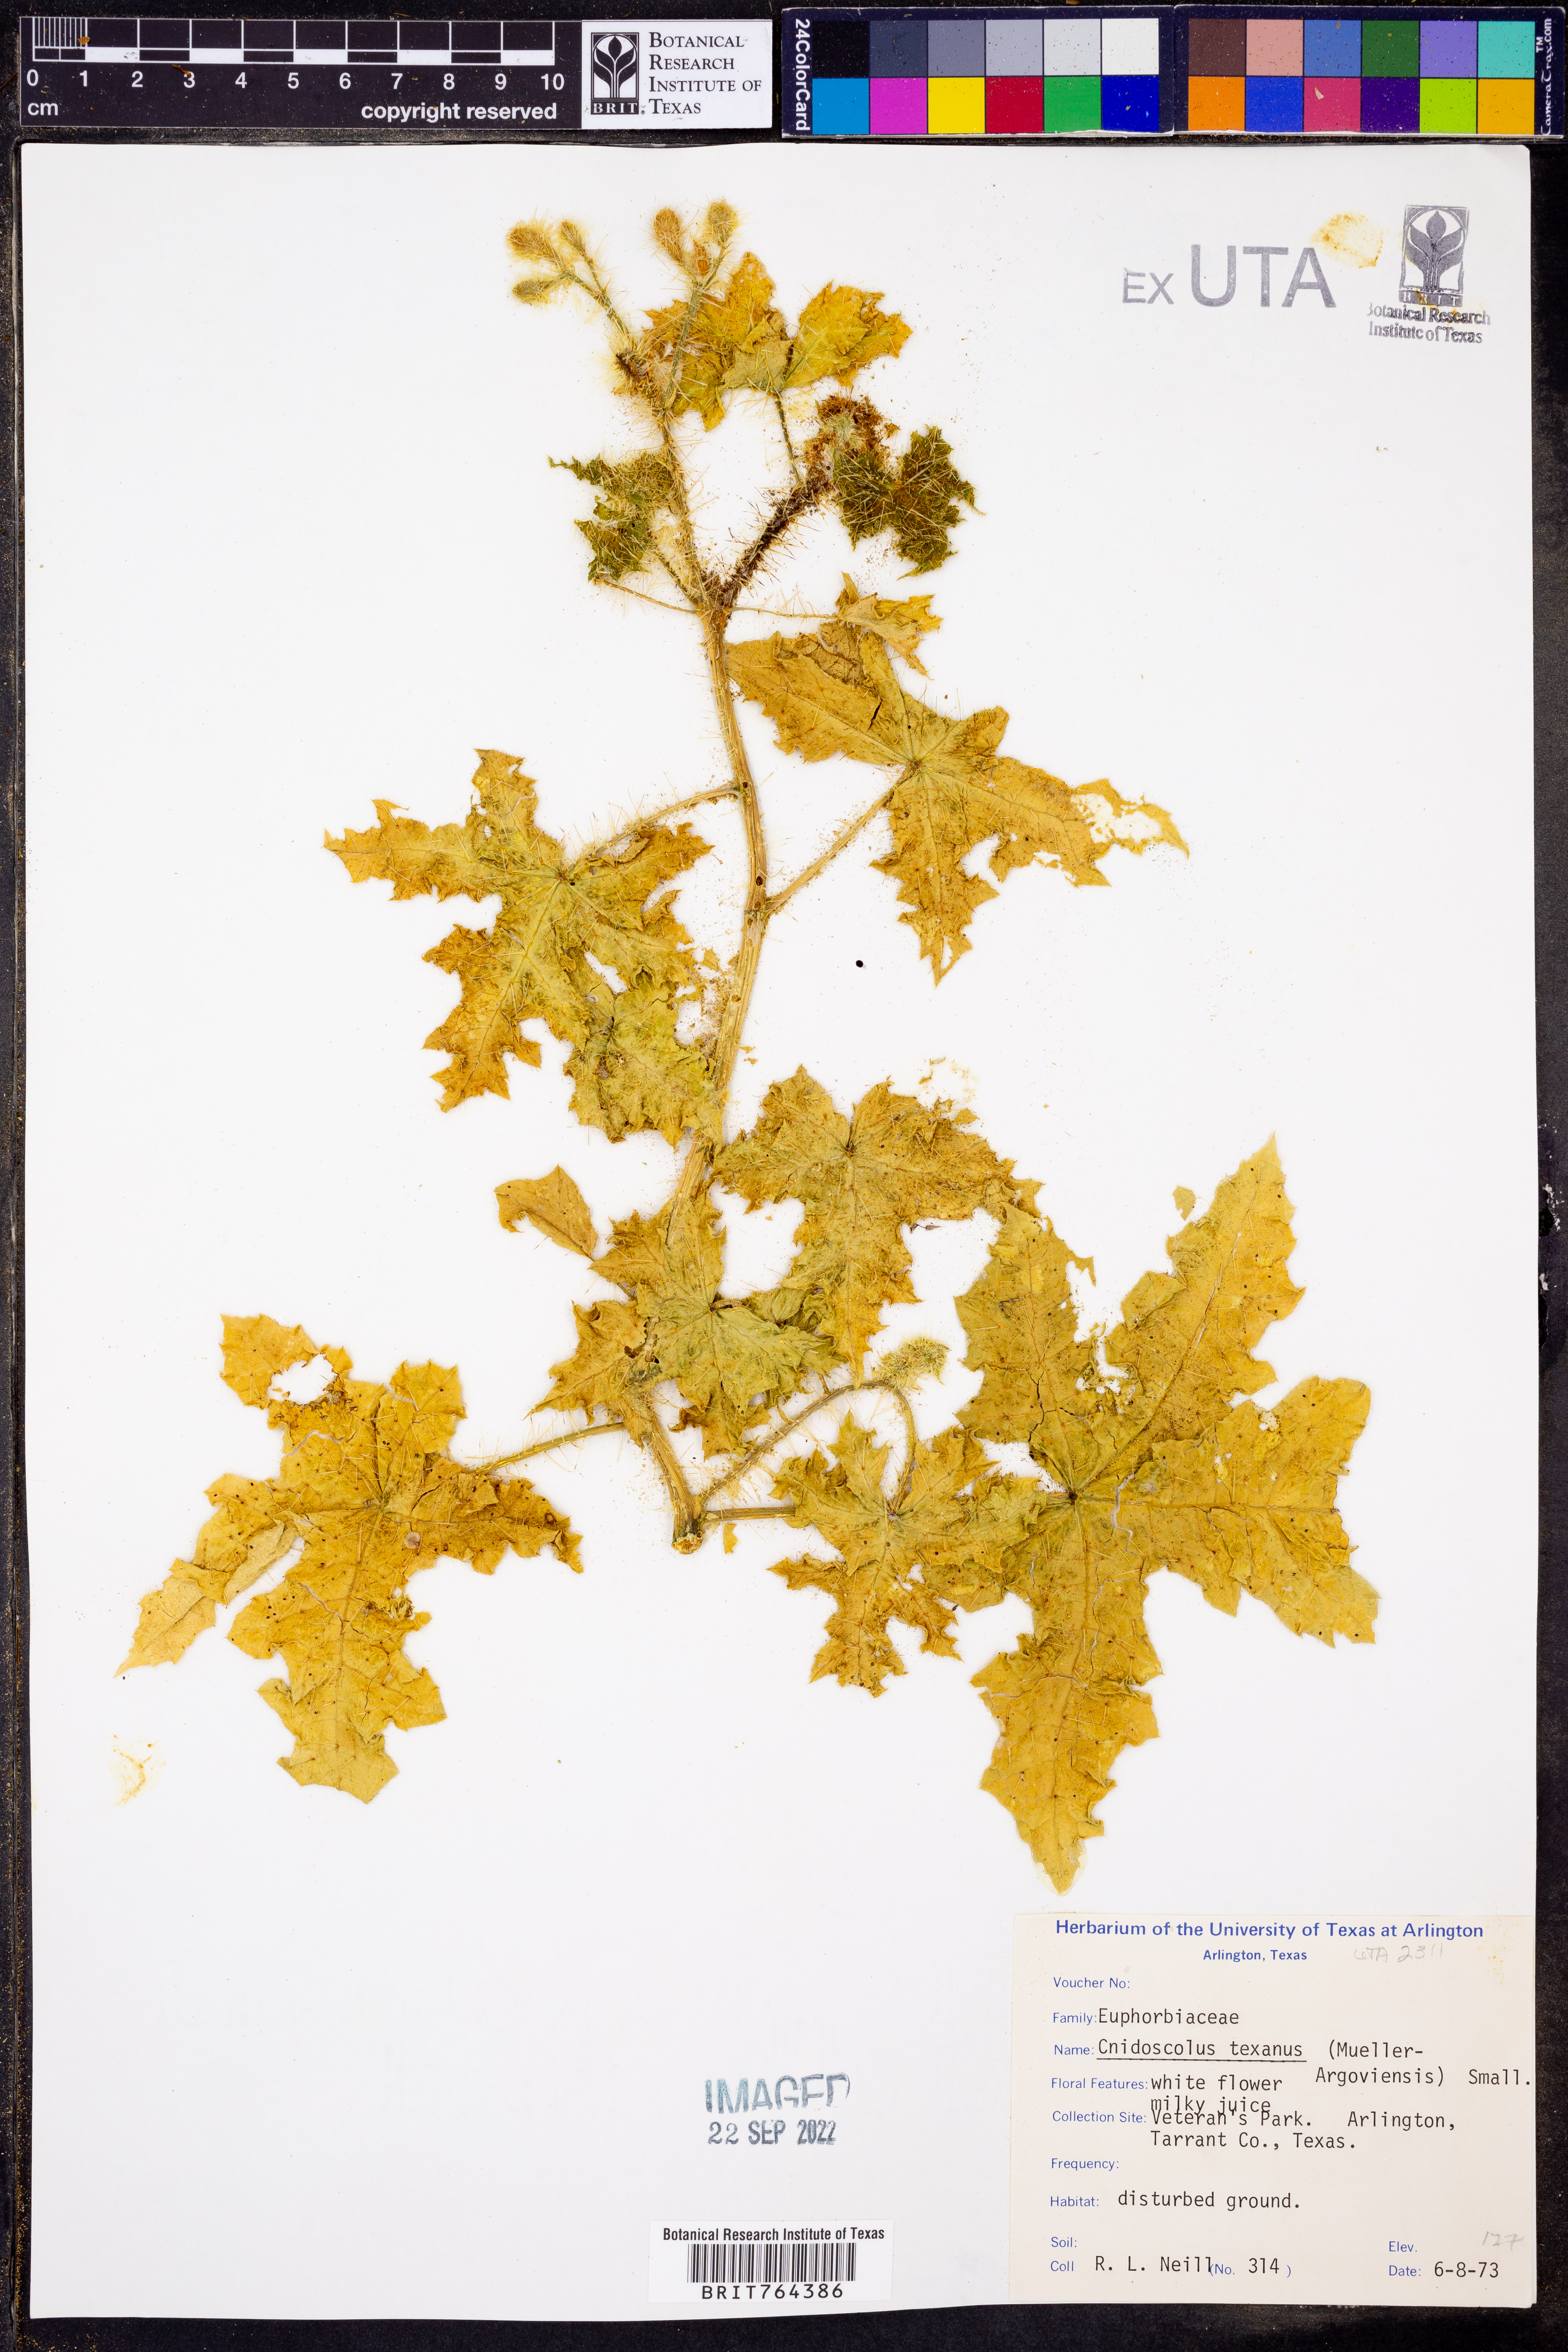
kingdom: Plantae
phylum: Tracheophyta
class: Magnoliopsida
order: Malpighiales
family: Euphorbiaceae
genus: Cnidoscolus
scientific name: Cnidoscolus texanus
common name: Texas bull-nettle
